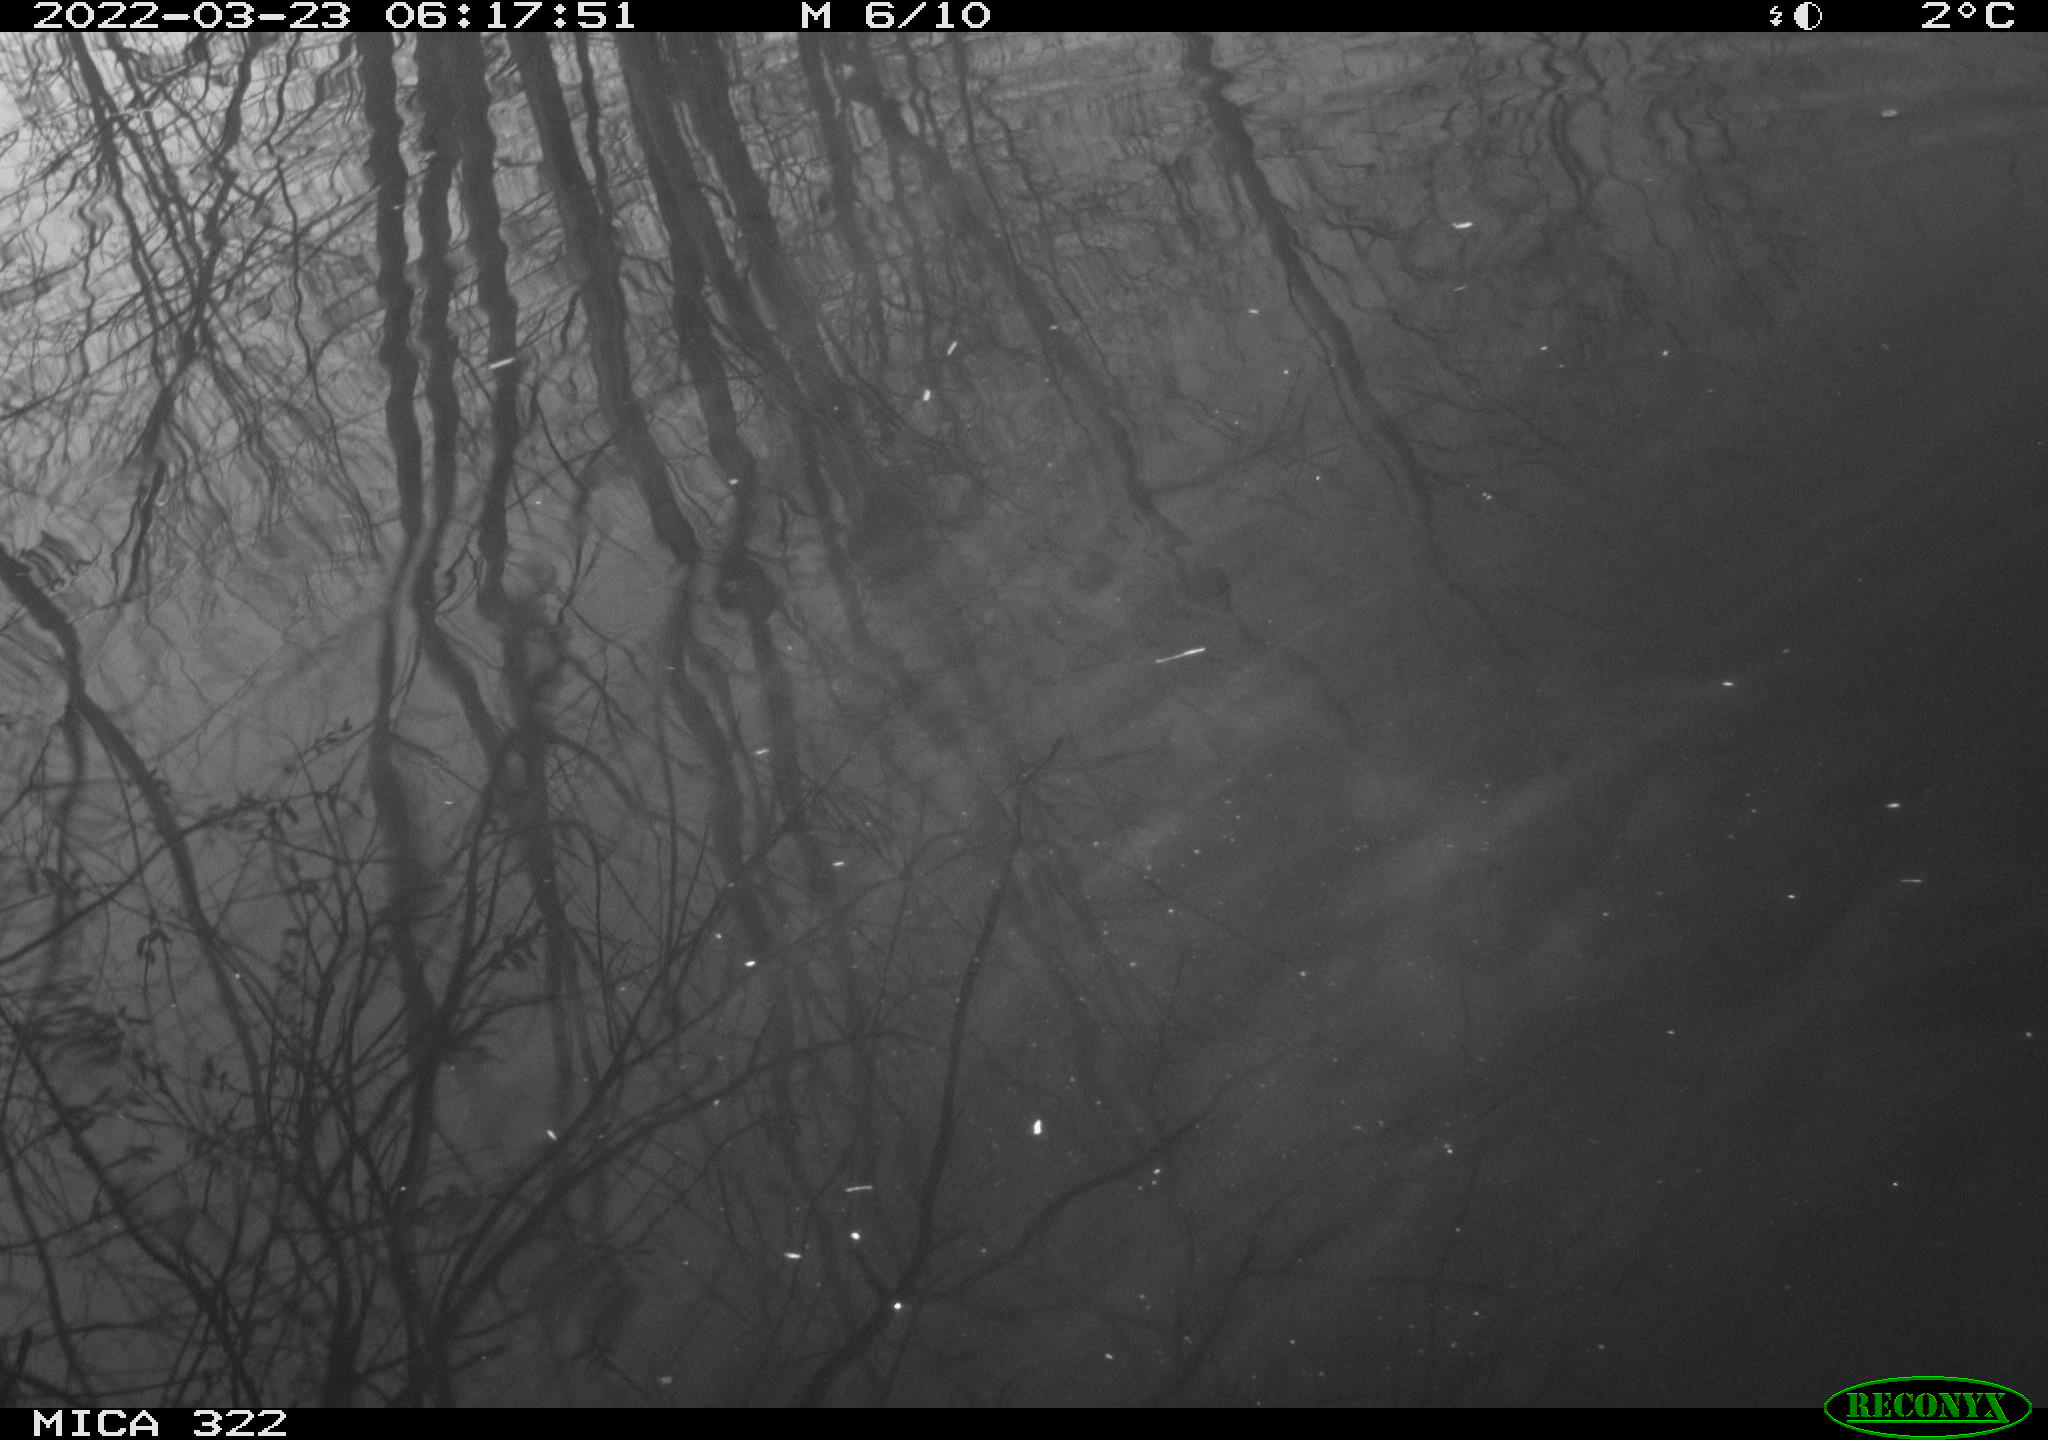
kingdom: Animalia
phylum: Chordata
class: Aves
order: Gruiformes
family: Rallidae
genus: Gallinula
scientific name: Gallinula chloropus
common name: Common moorhen
